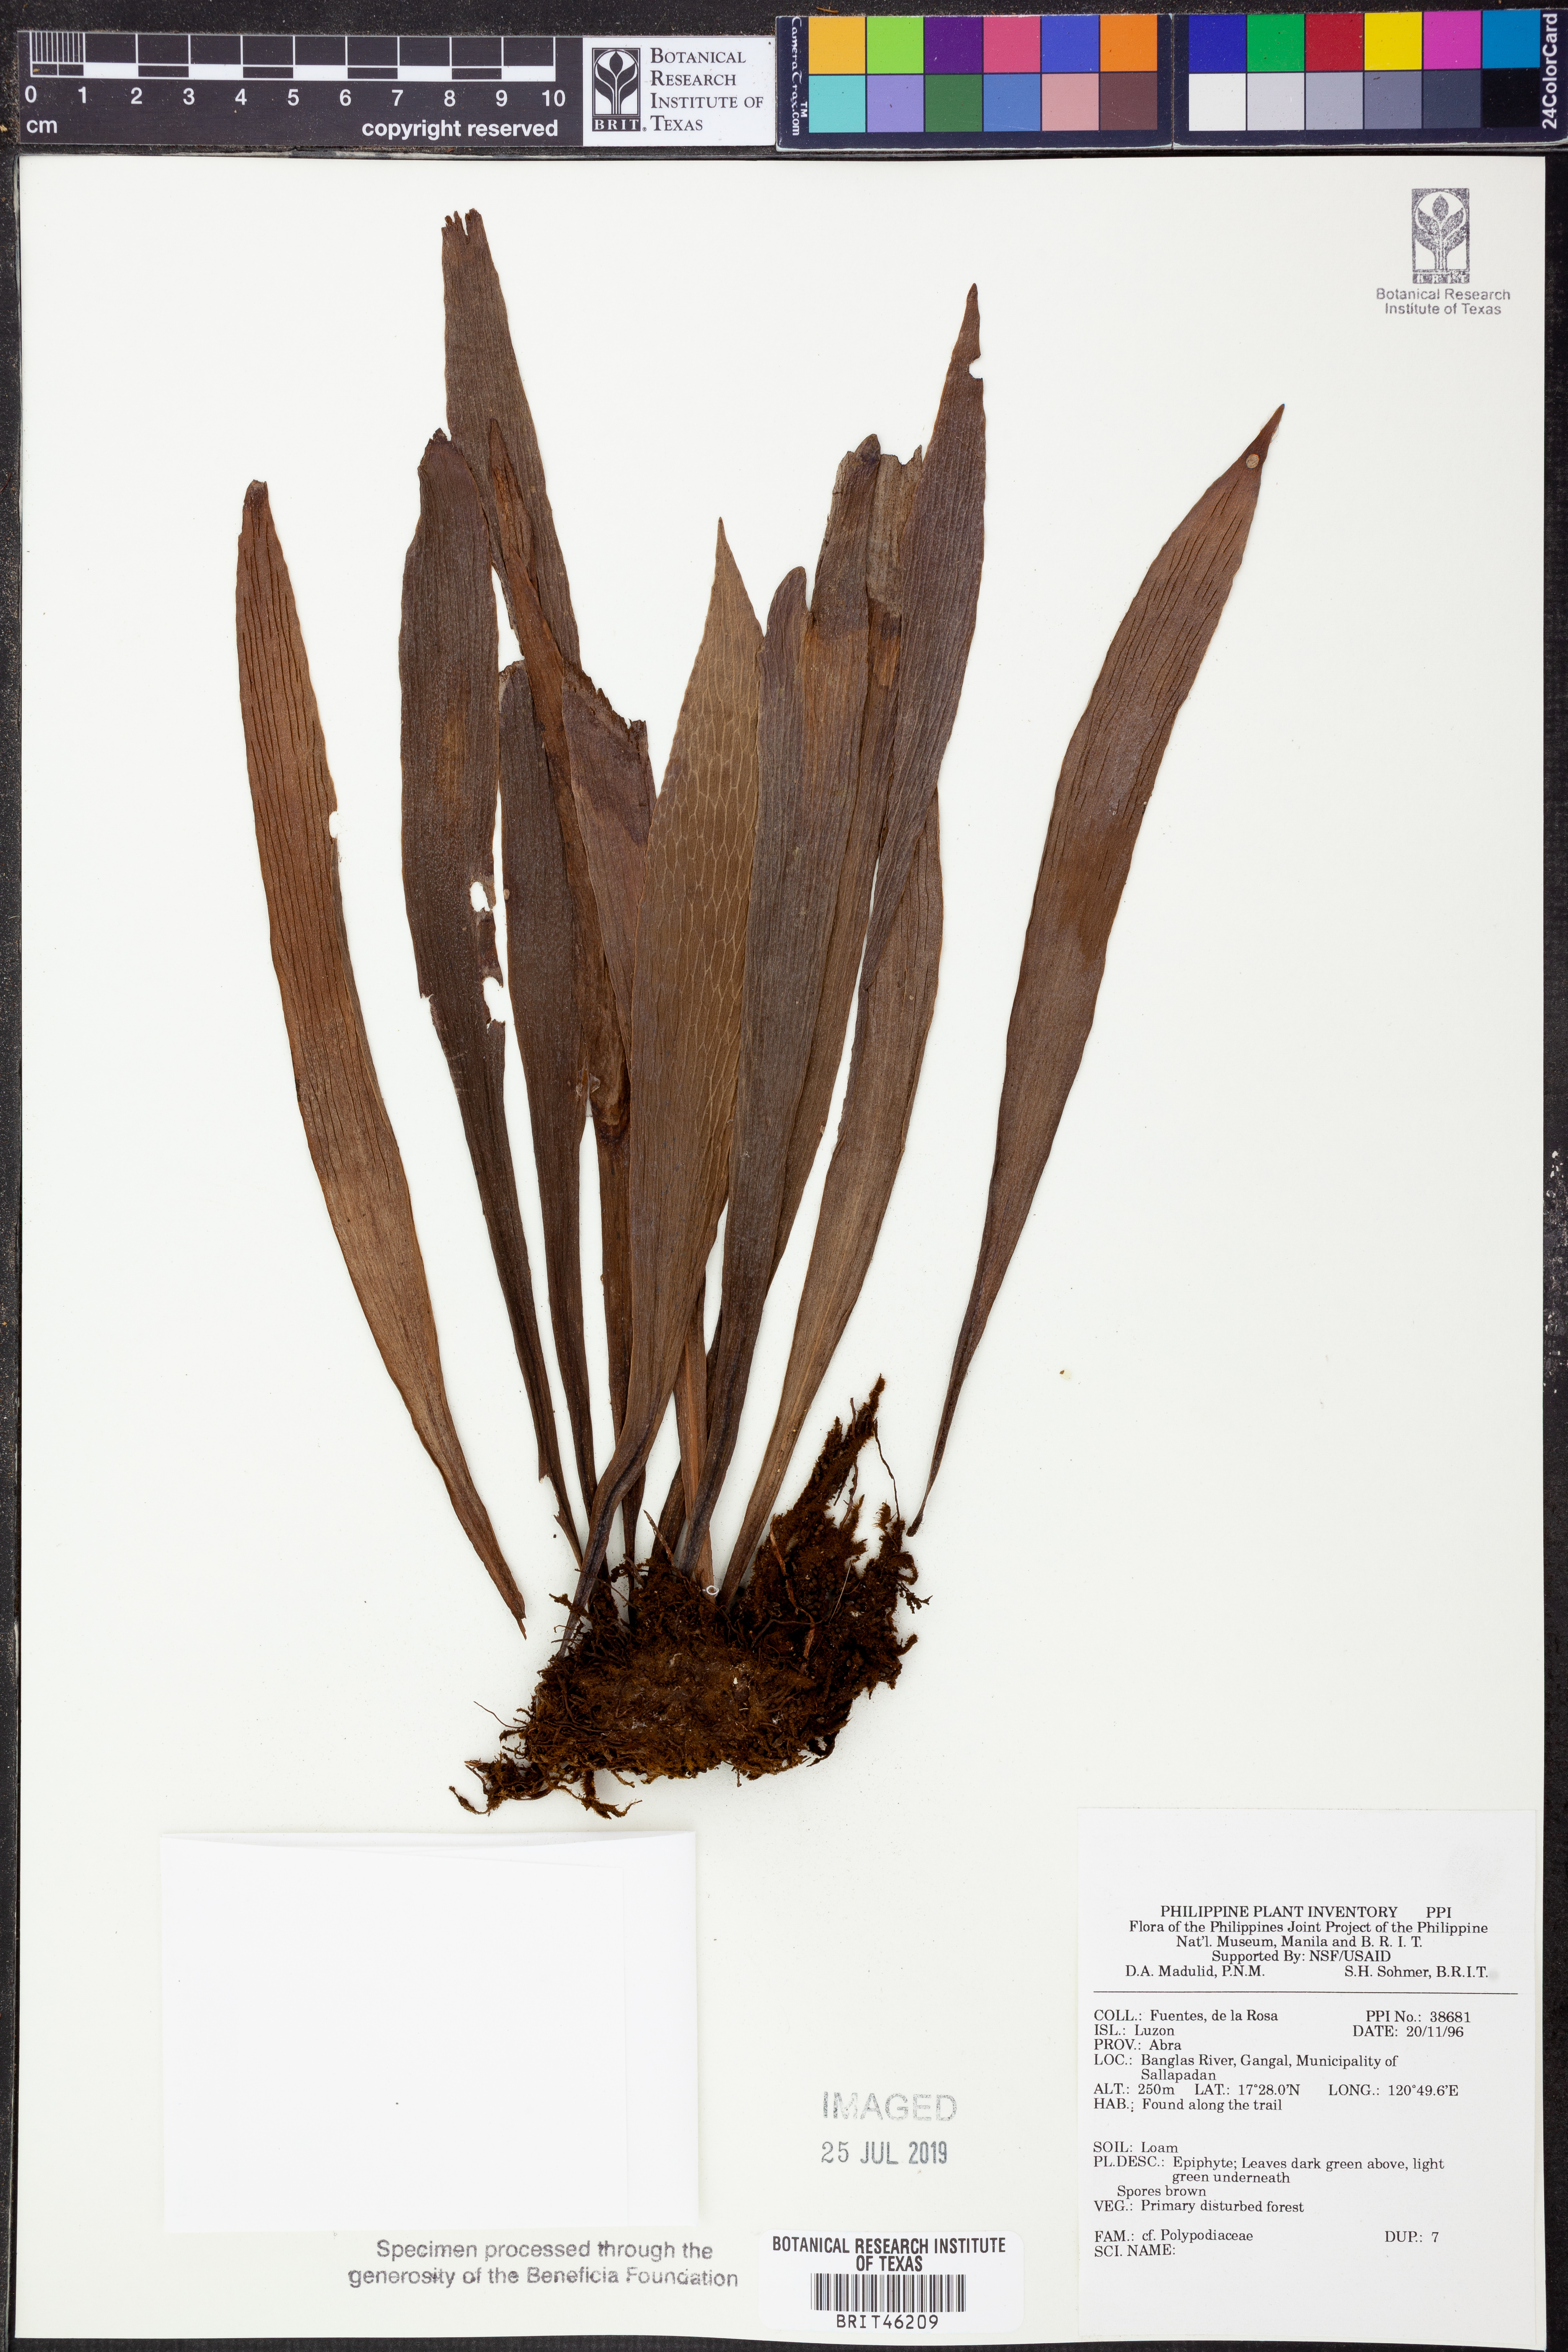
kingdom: Plantae
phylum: Tracheophyta
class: Polypodiopsida
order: Polypodiales
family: Polypodiaceae
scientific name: Polypodiaceae
